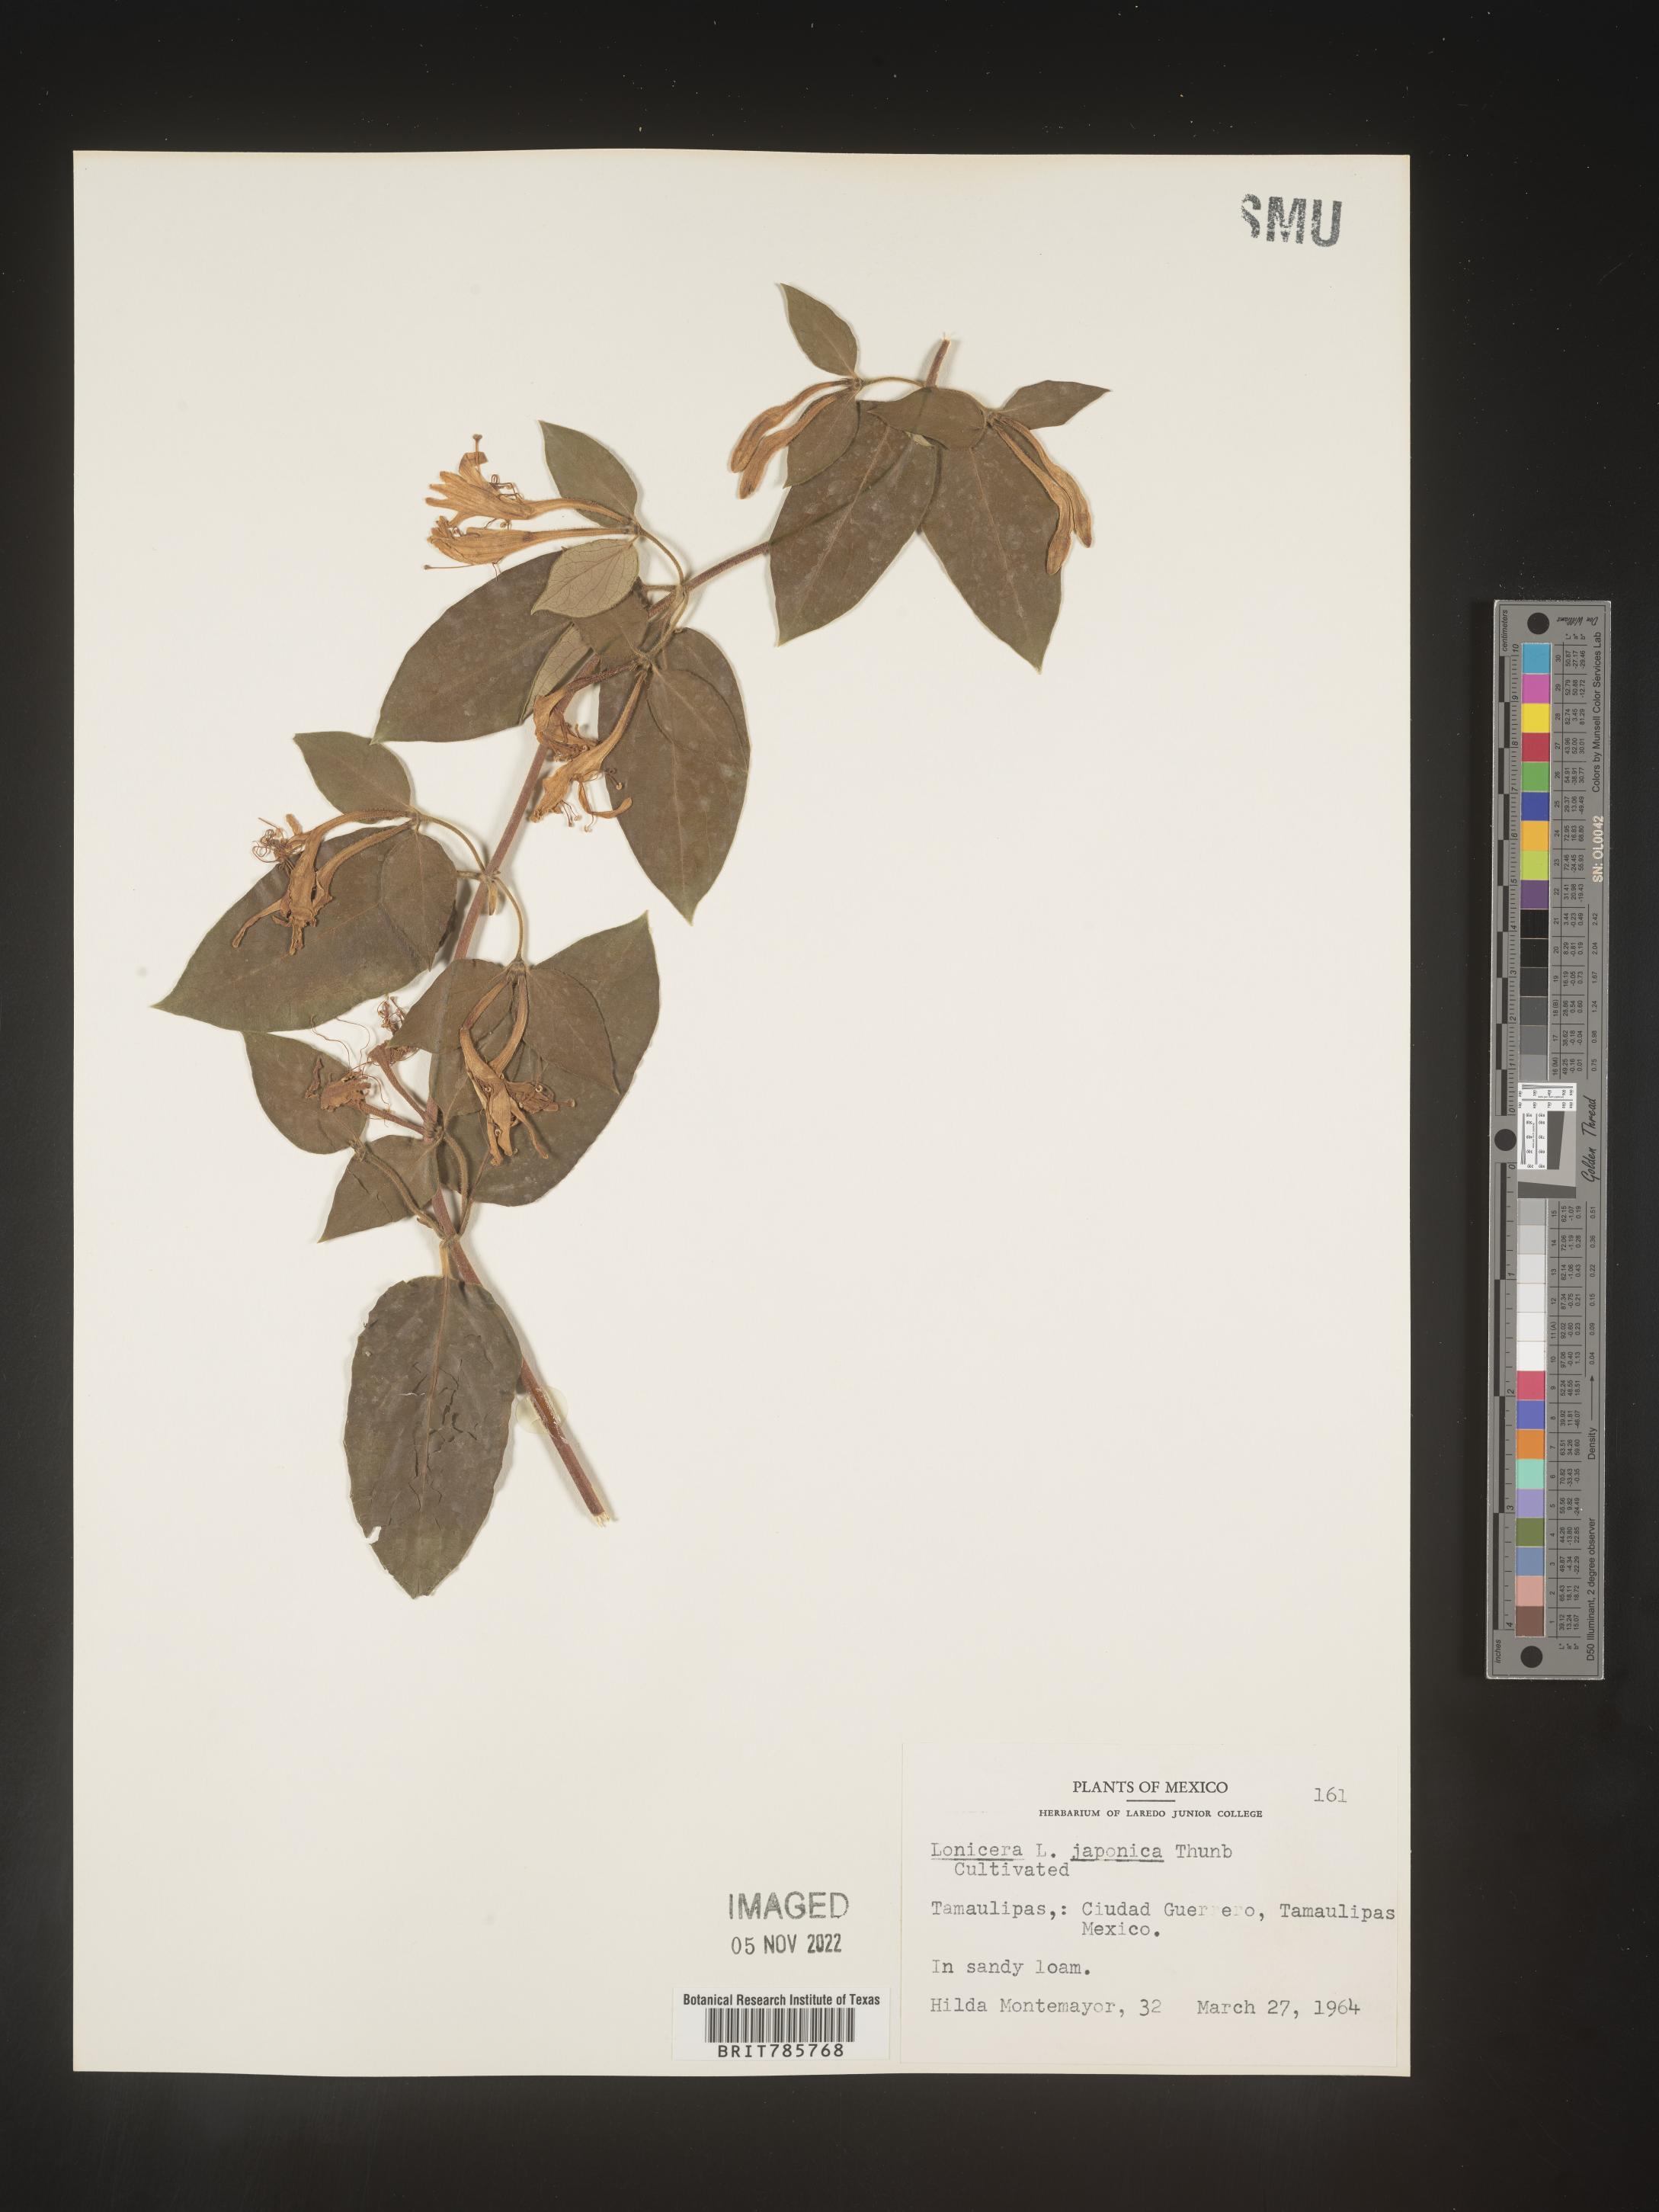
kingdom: Plantae
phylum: Tracheophyta
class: Magnoliopsida
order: Dipsacales
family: Caprifoliaceae
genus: Lonicera
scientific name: Lonicera
